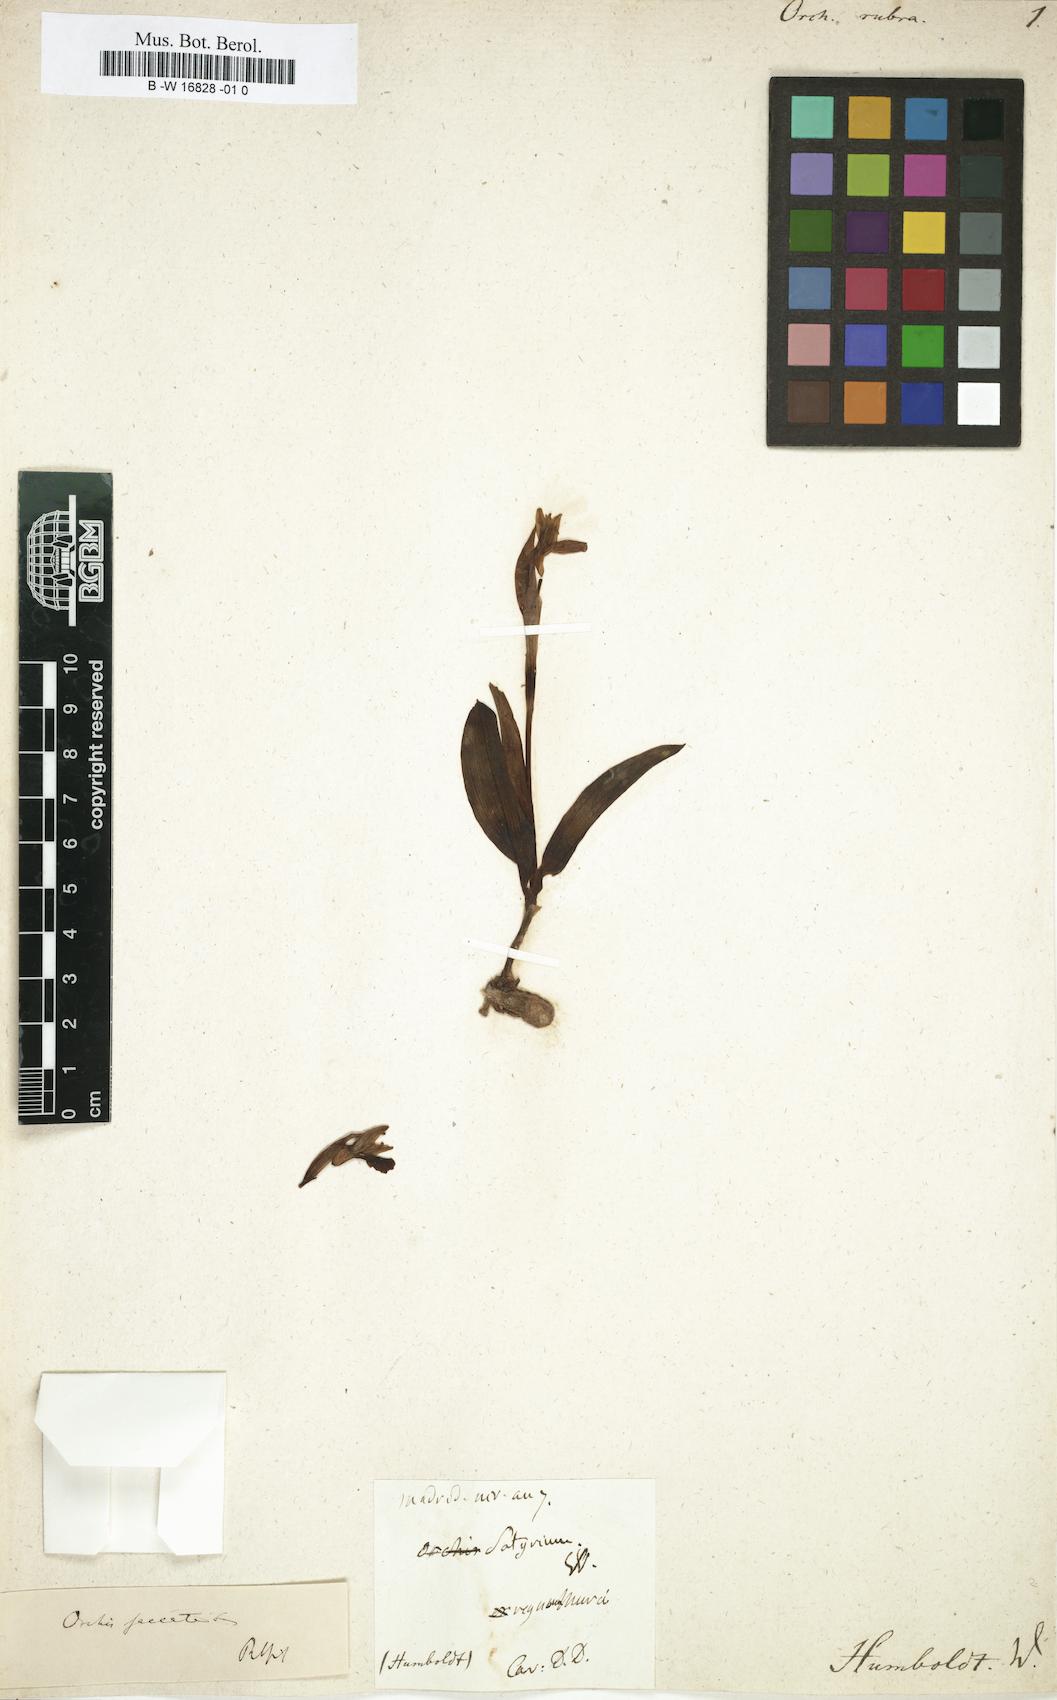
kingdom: Plantae
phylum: Tracheophyta
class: Liliopsida
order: Asparagales
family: Orchidaceae
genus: Anacamptis
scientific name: Anacamptis papilionacea
